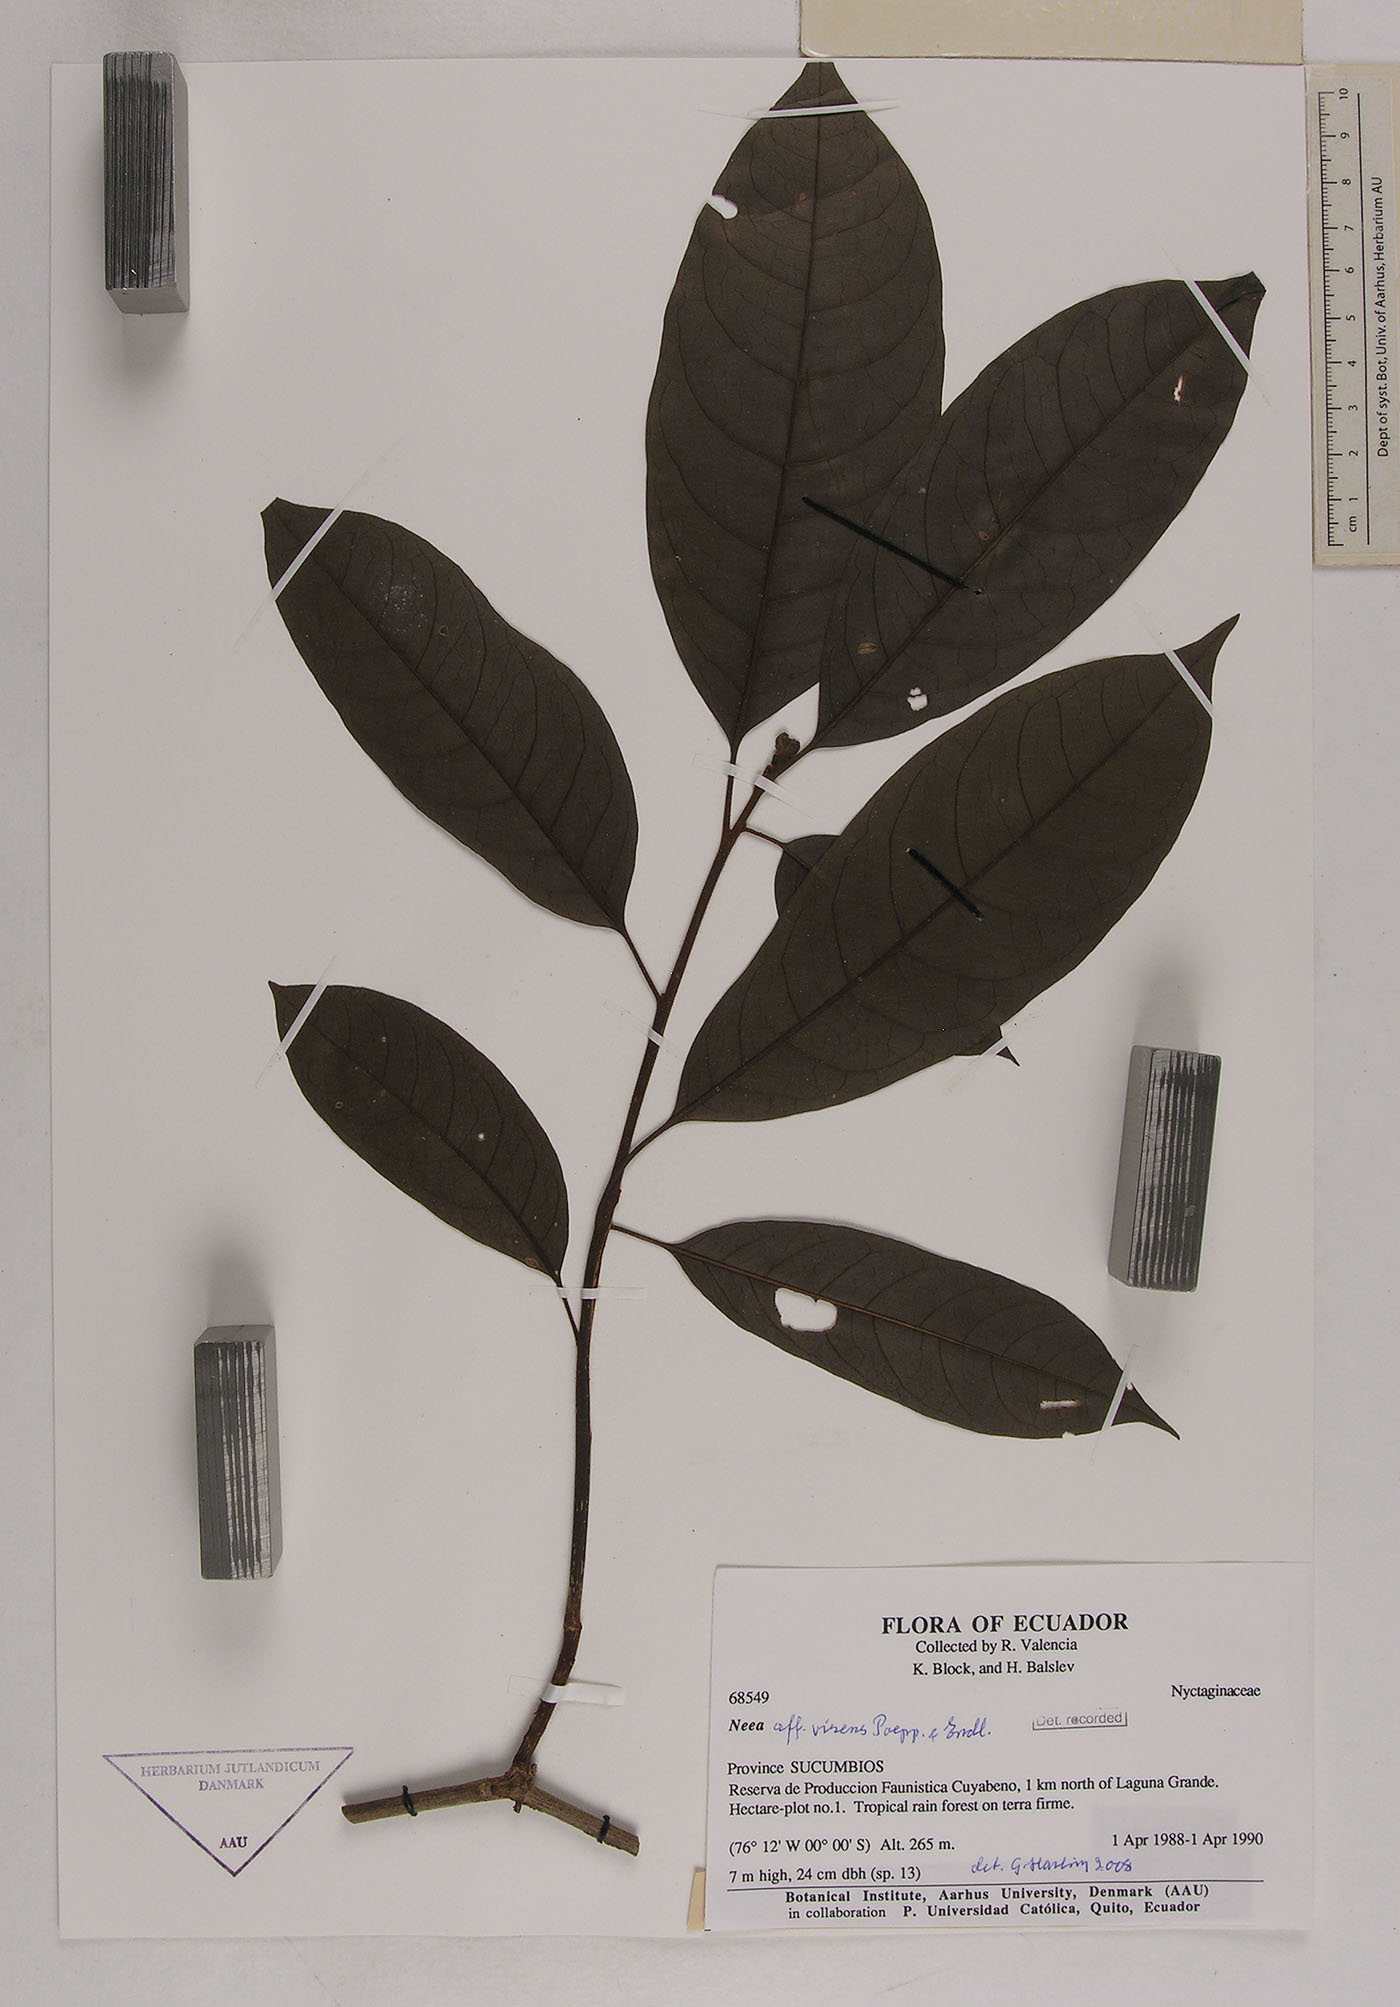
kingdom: Plantae
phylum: Tracheophyta
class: Magnoliopsida
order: Caryophyllales
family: Nyctaginaceae
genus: Neea
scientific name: Neea virens
